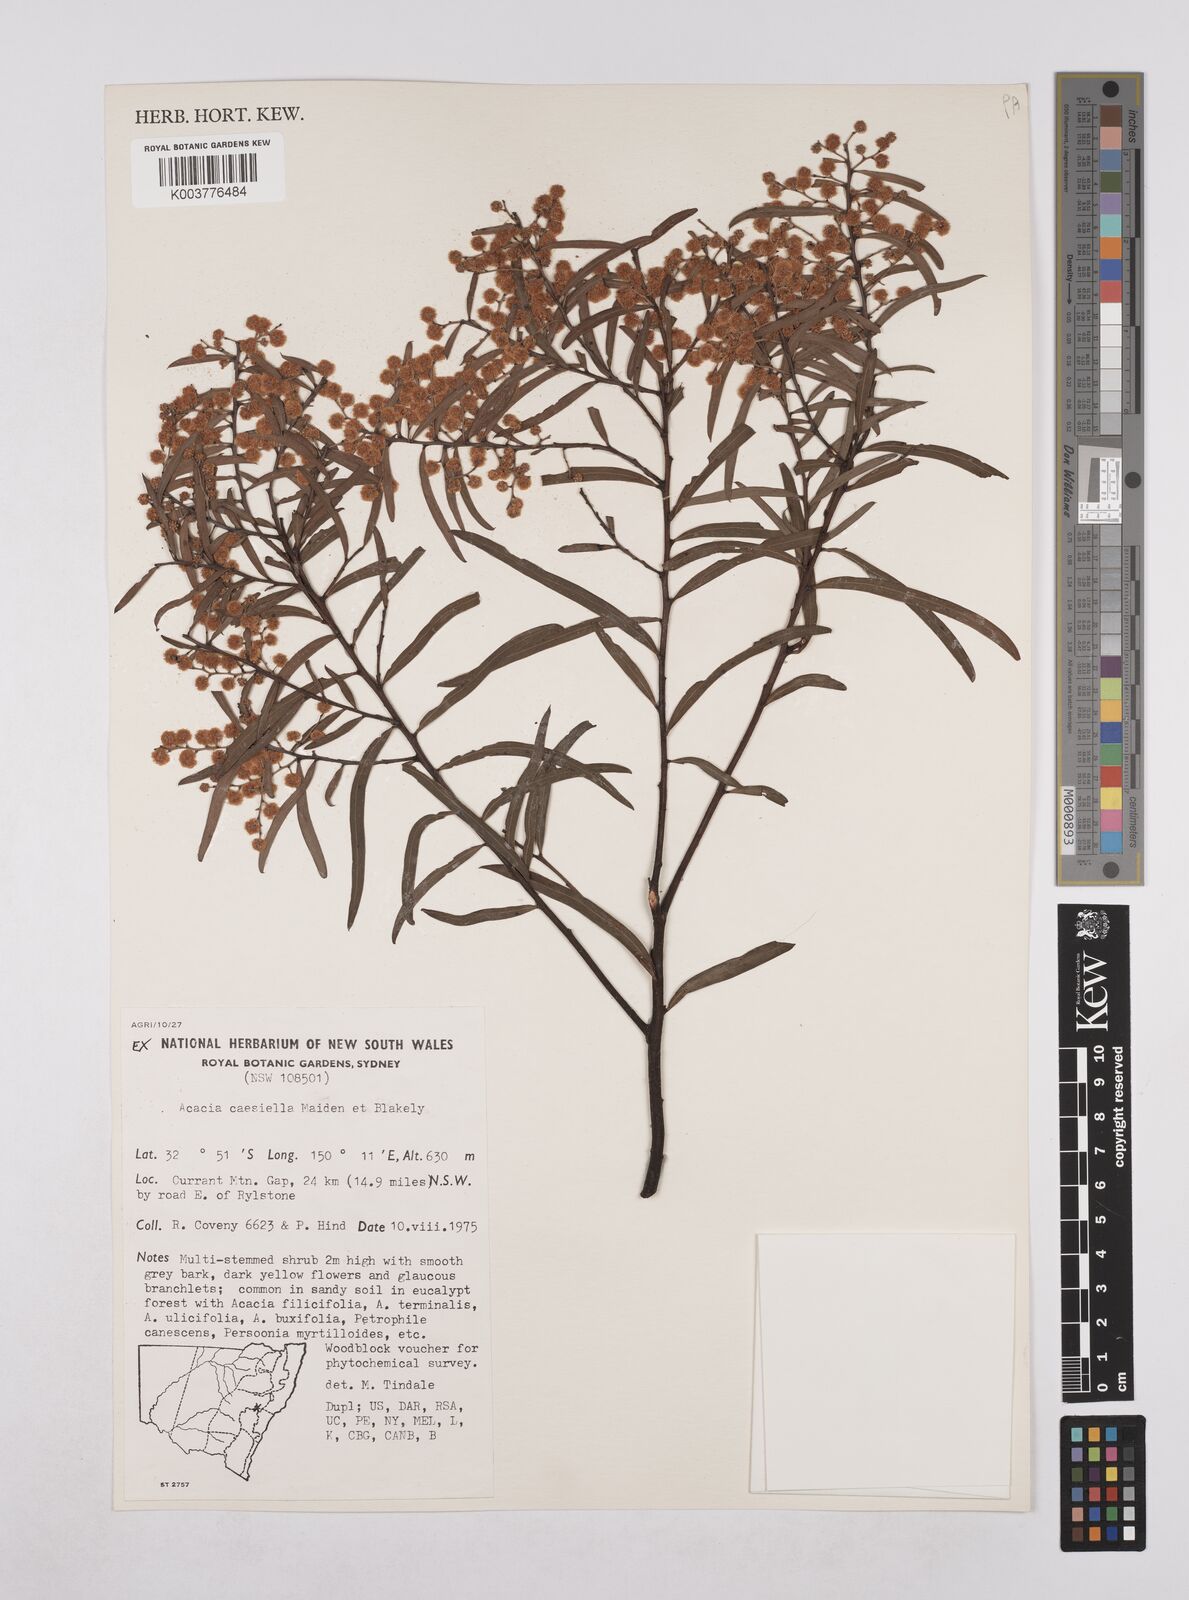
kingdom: Plantae
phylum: Tracheophyta
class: Magnoliopsida
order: Fabales
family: Fabaceae
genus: Acacia
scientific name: Acacia caesiella
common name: Tableland wattle
